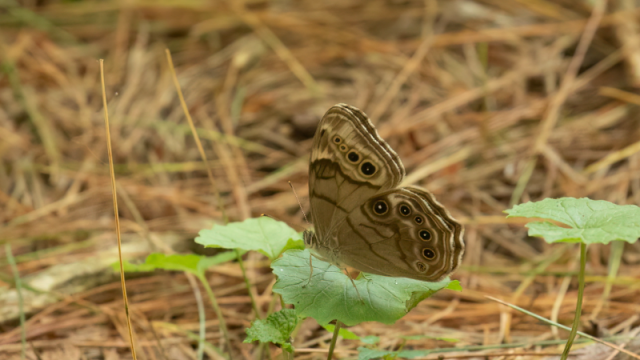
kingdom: Animalia
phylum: Arthropoda
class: Insecta
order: Lepidoptera
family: Nymphalidae
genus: Lethe
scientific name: Lethe anthedon
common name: Northern Pearly-Eye
